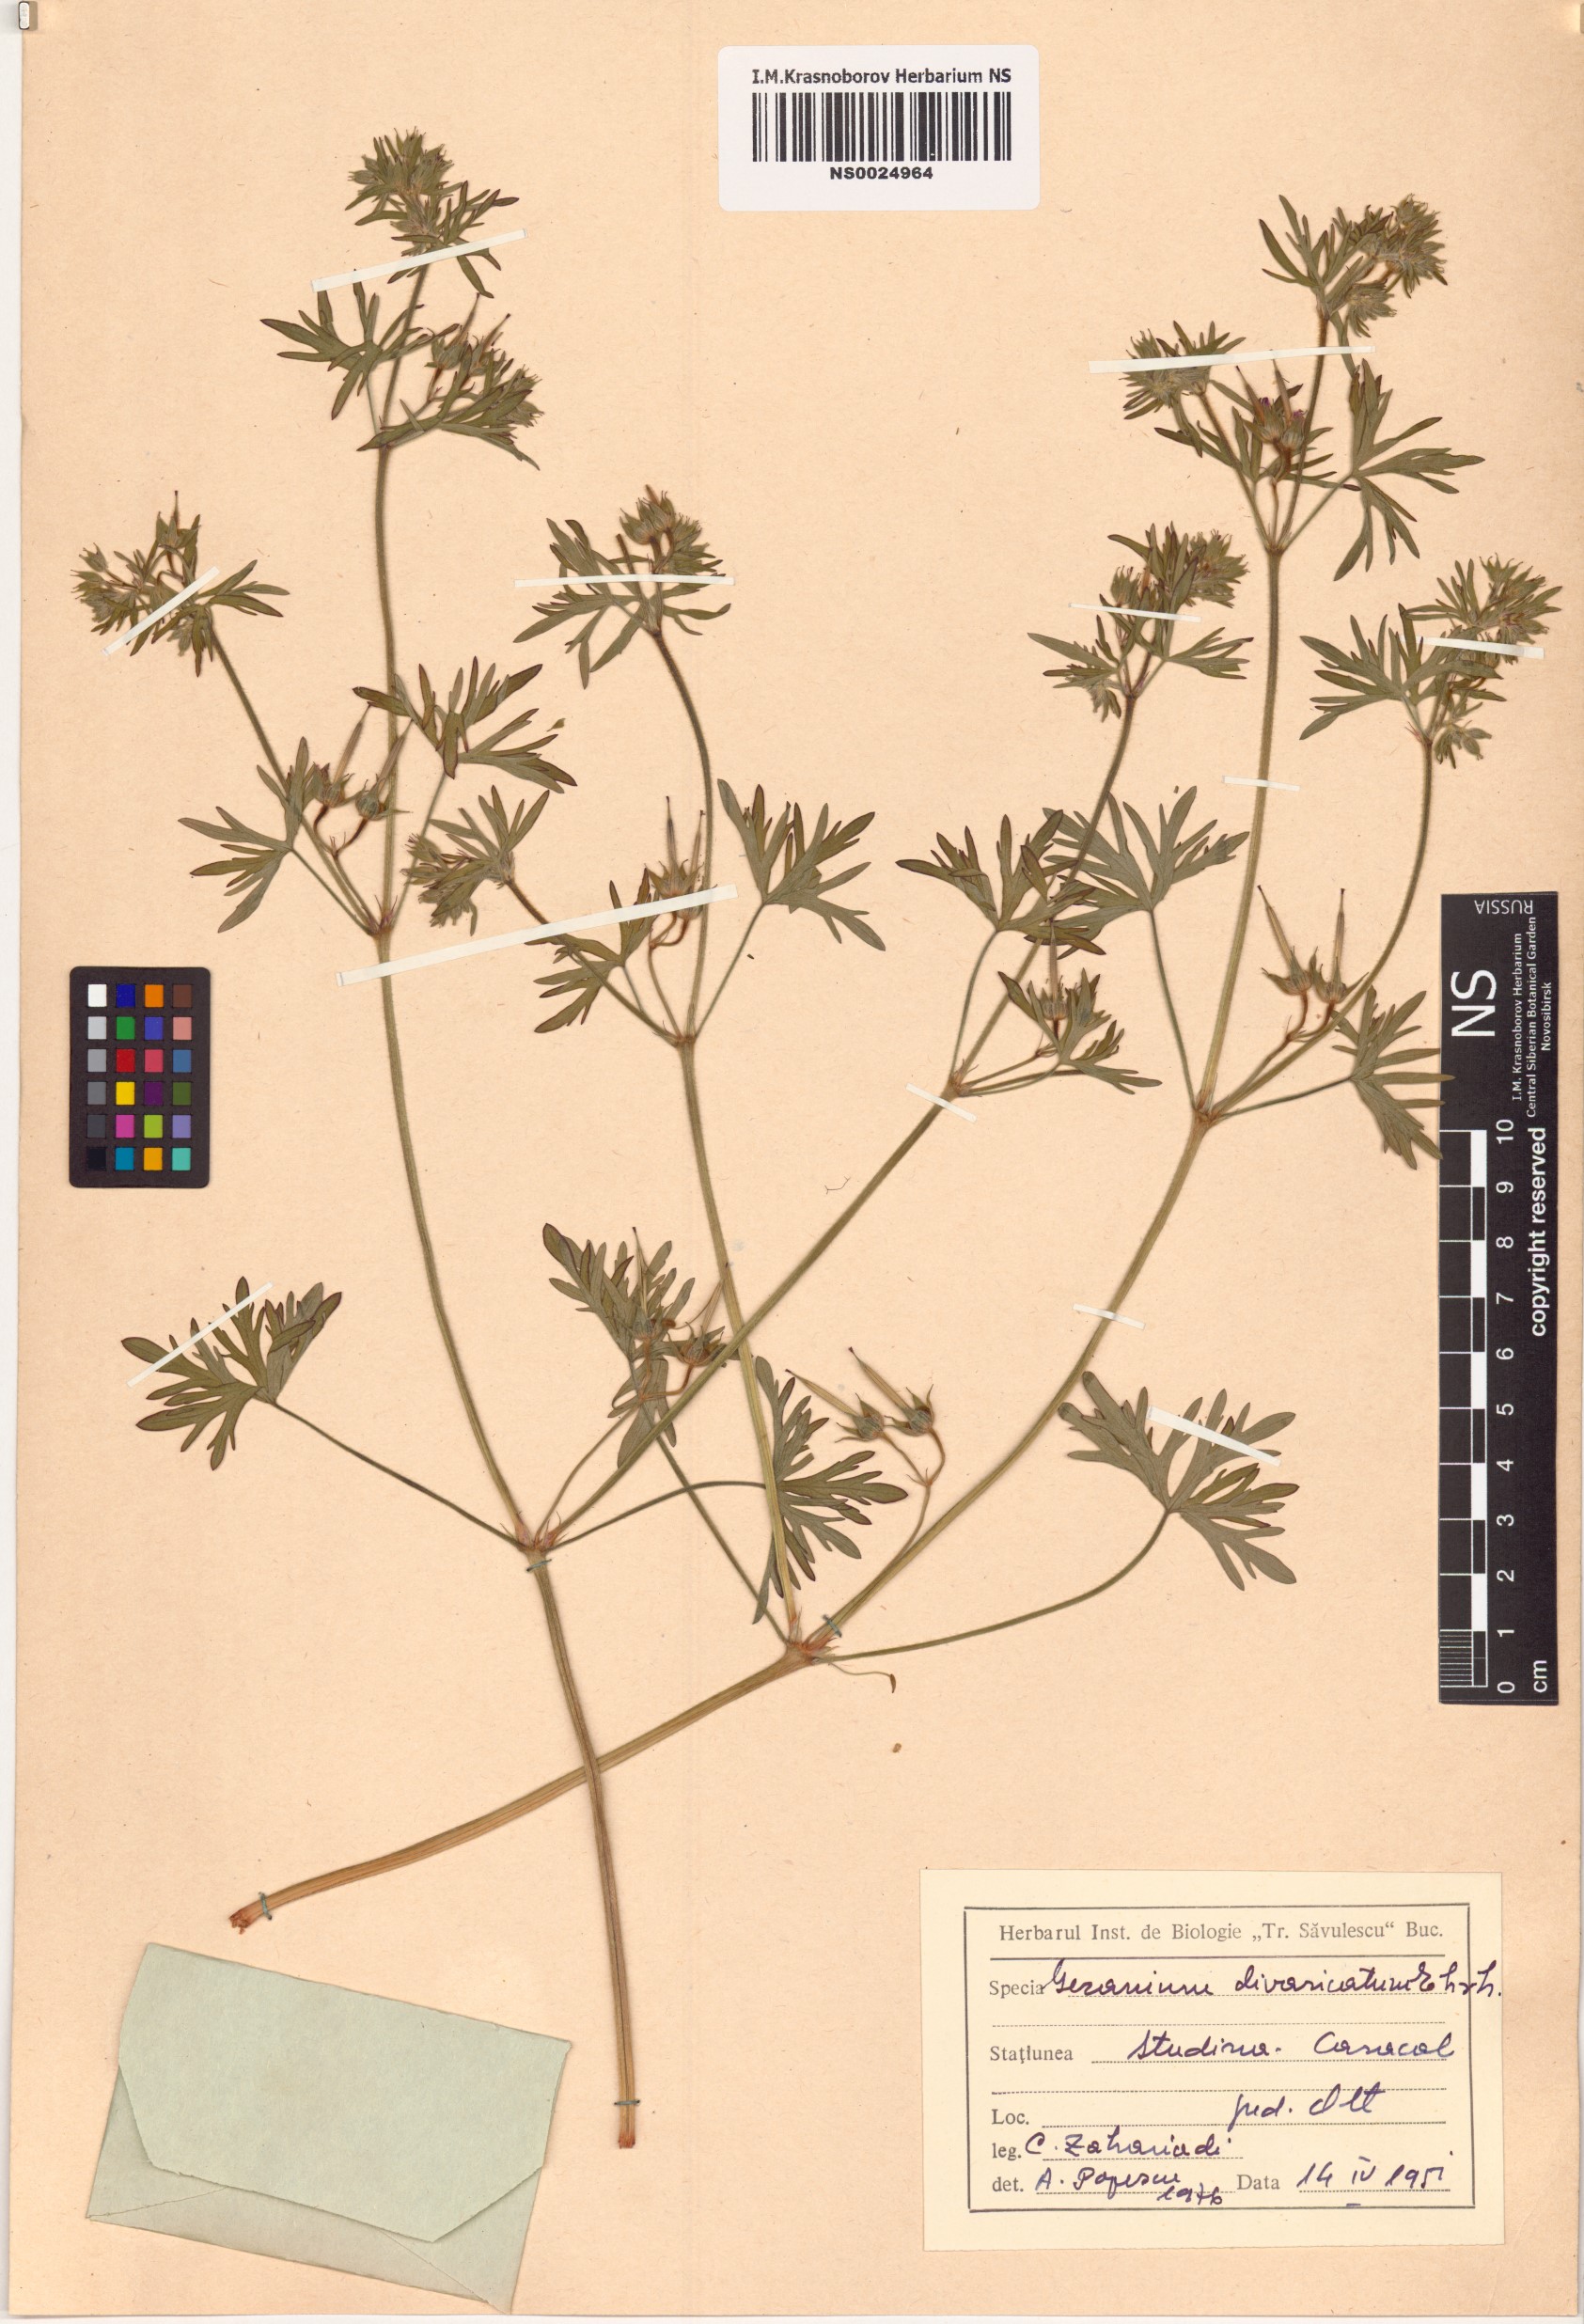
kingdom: Plantae
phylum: Tracheophyta
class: Magnoliopsida
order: Geraniales
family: Geraniaceae
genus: Geranium
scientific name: Geranium divaricatum
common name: Spreading crane's-bill
